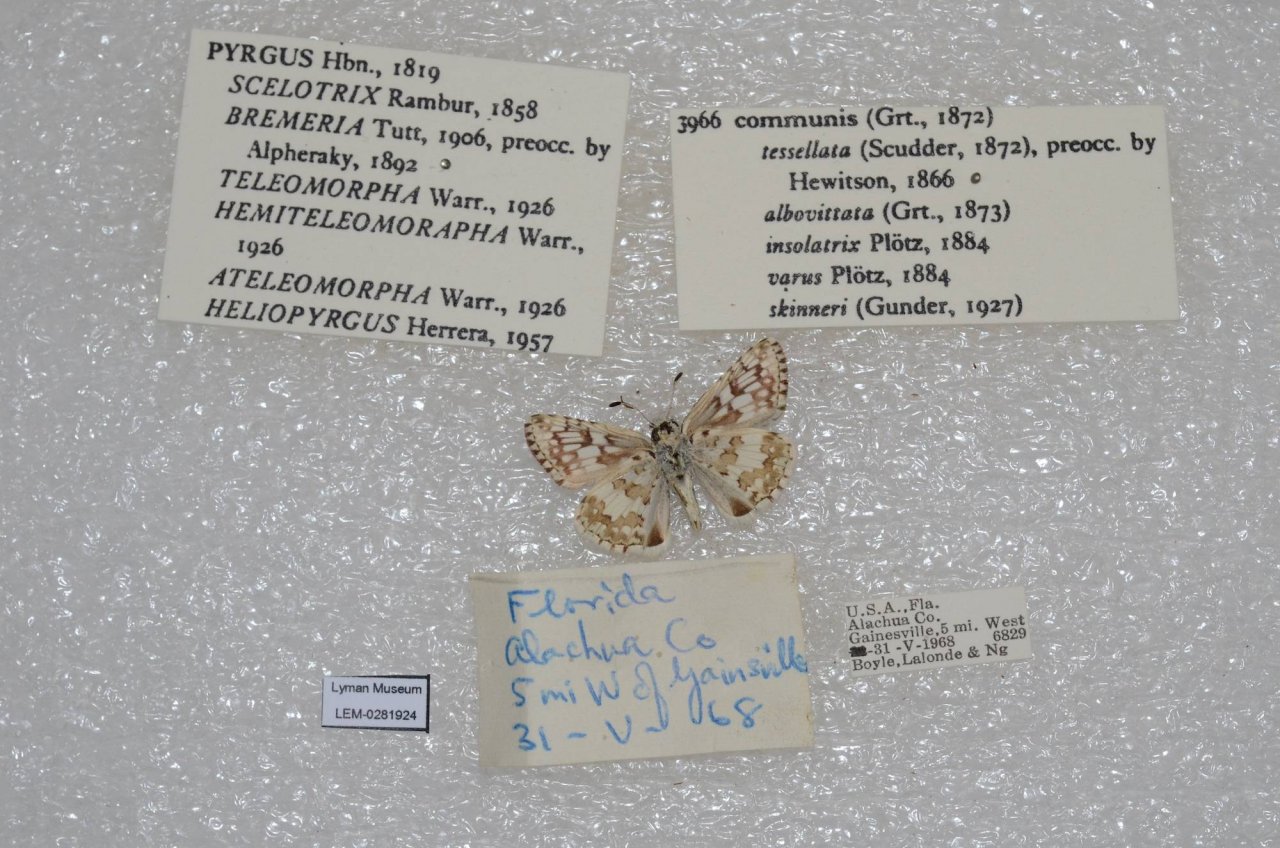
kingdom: Animalia
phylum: Arthropoda
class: Insecta
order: Lepidoptera
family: Hesperiidae
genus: Pyrgus
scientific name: Pyrgus
